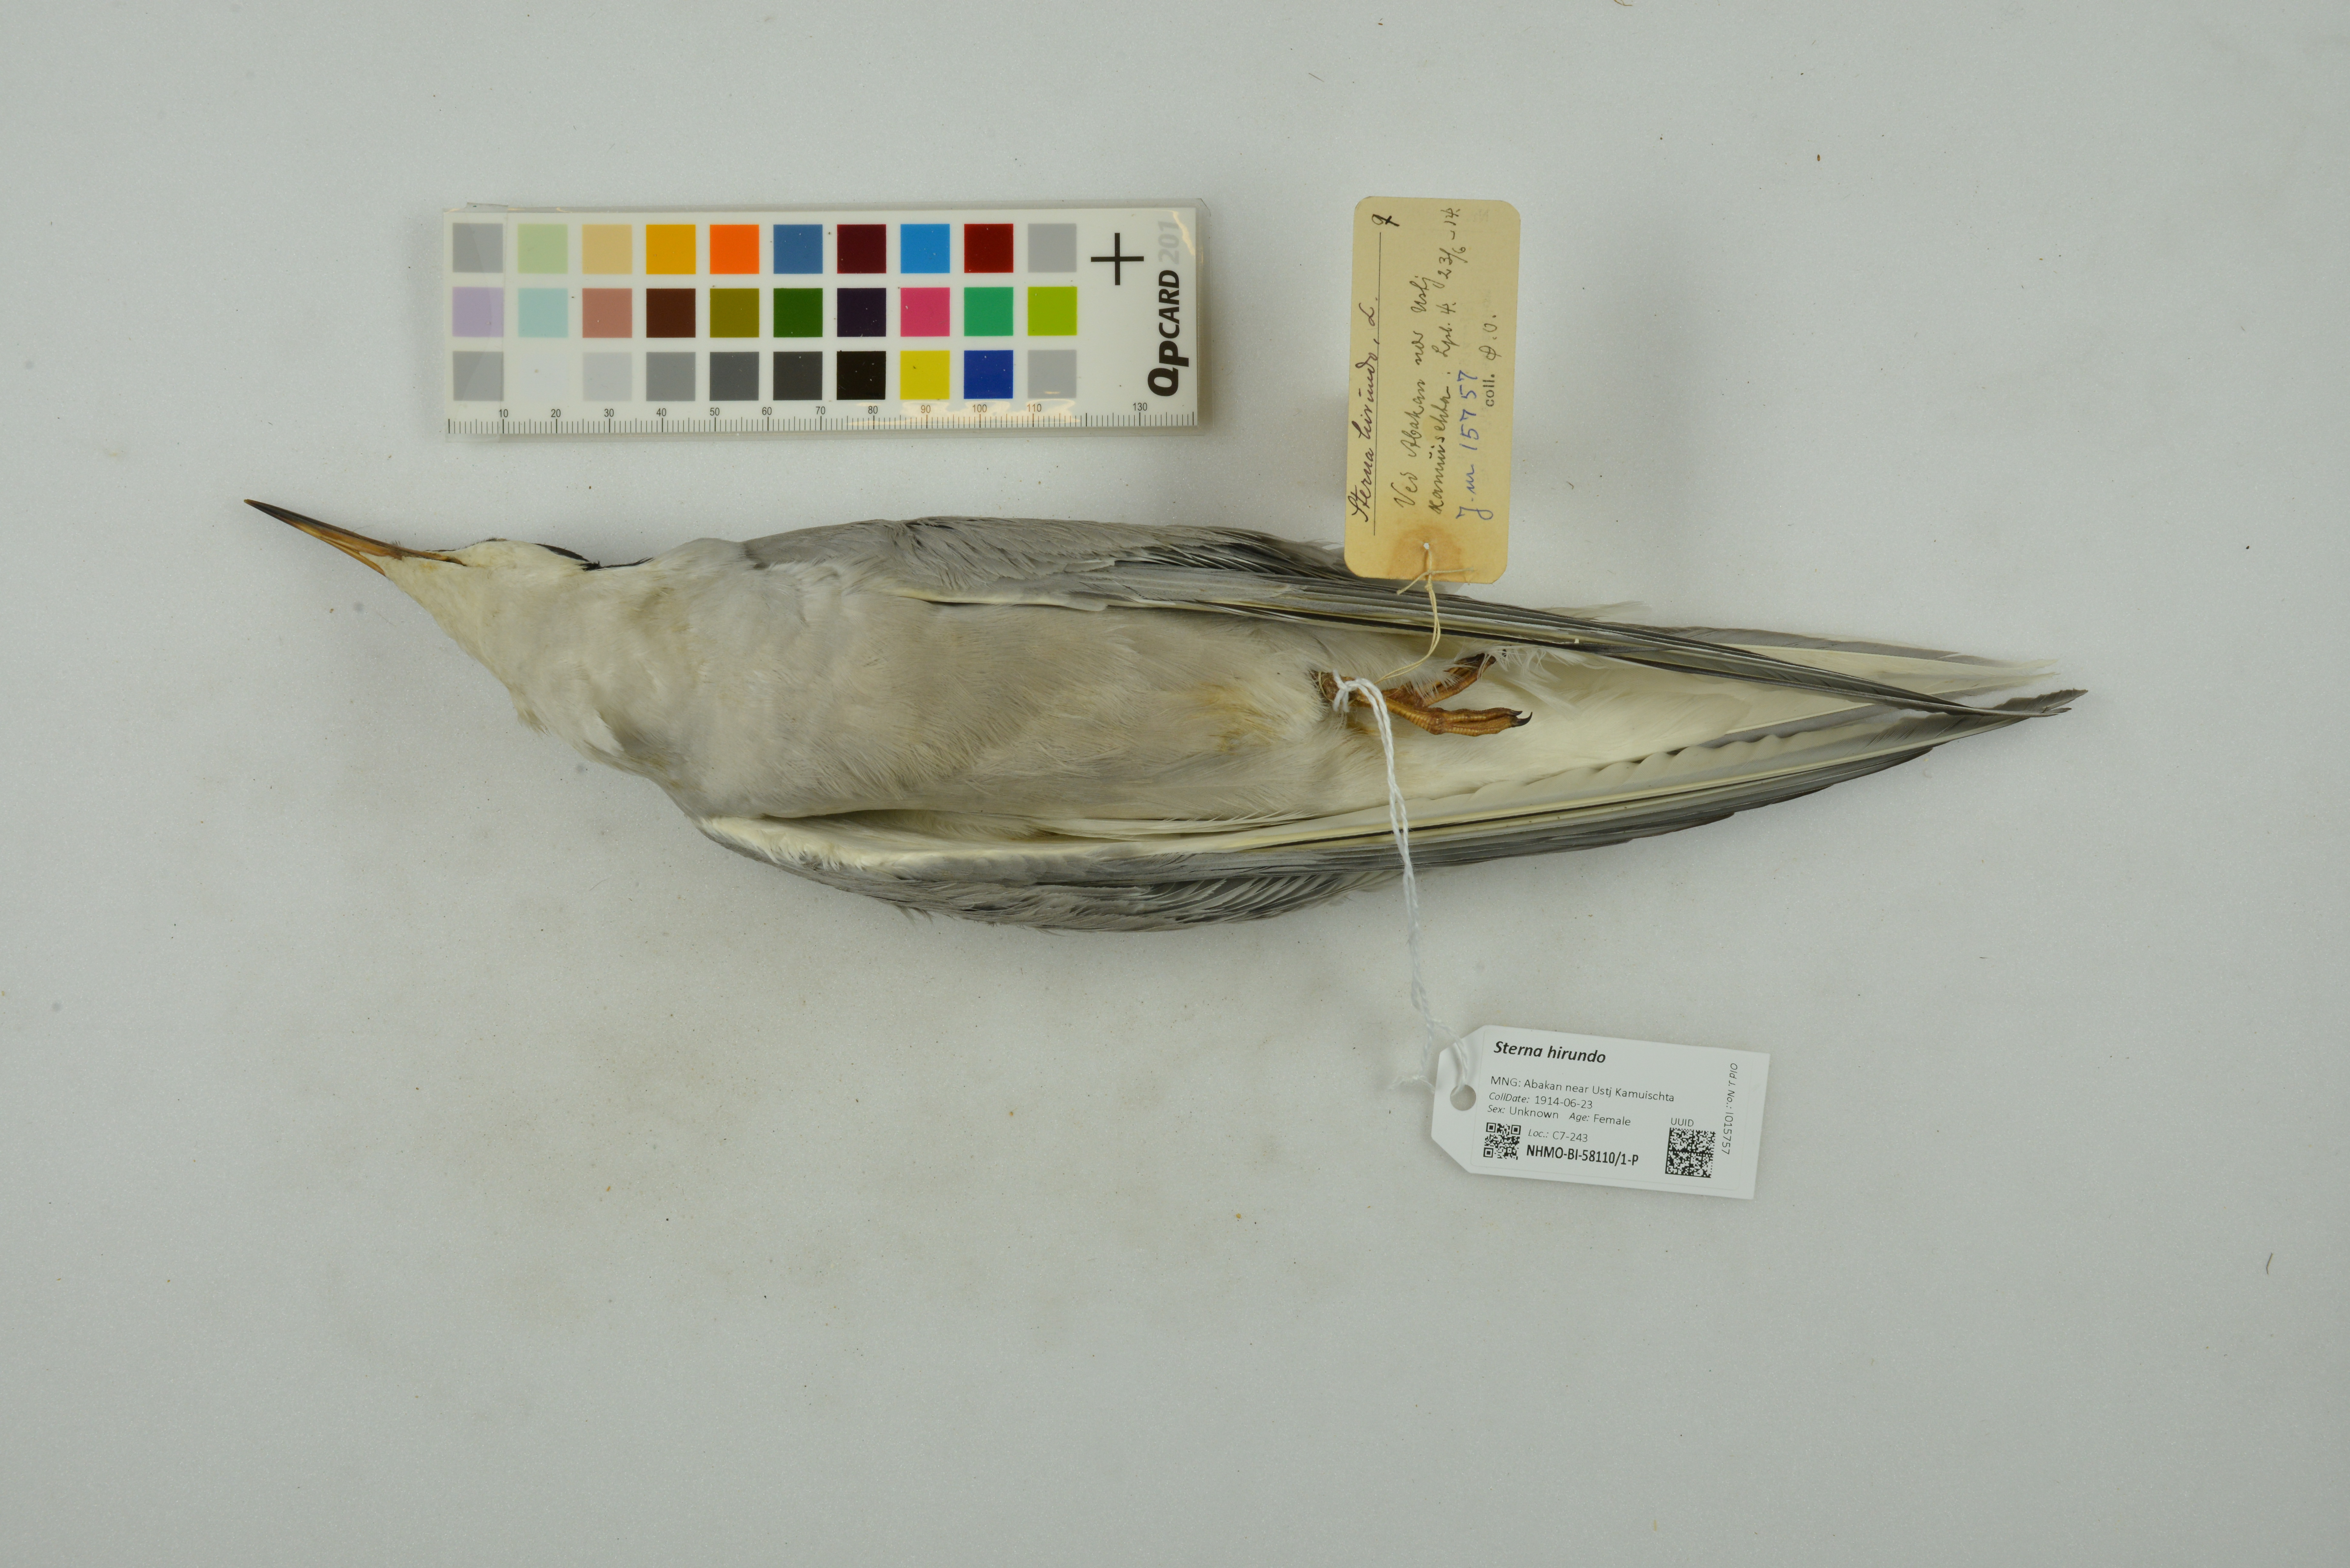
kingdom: Animalia
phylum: Chordata
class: Aves
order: Charadriiformes
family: Laridae
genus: Sterna
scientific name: Sterna hirundo
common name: Common tern
